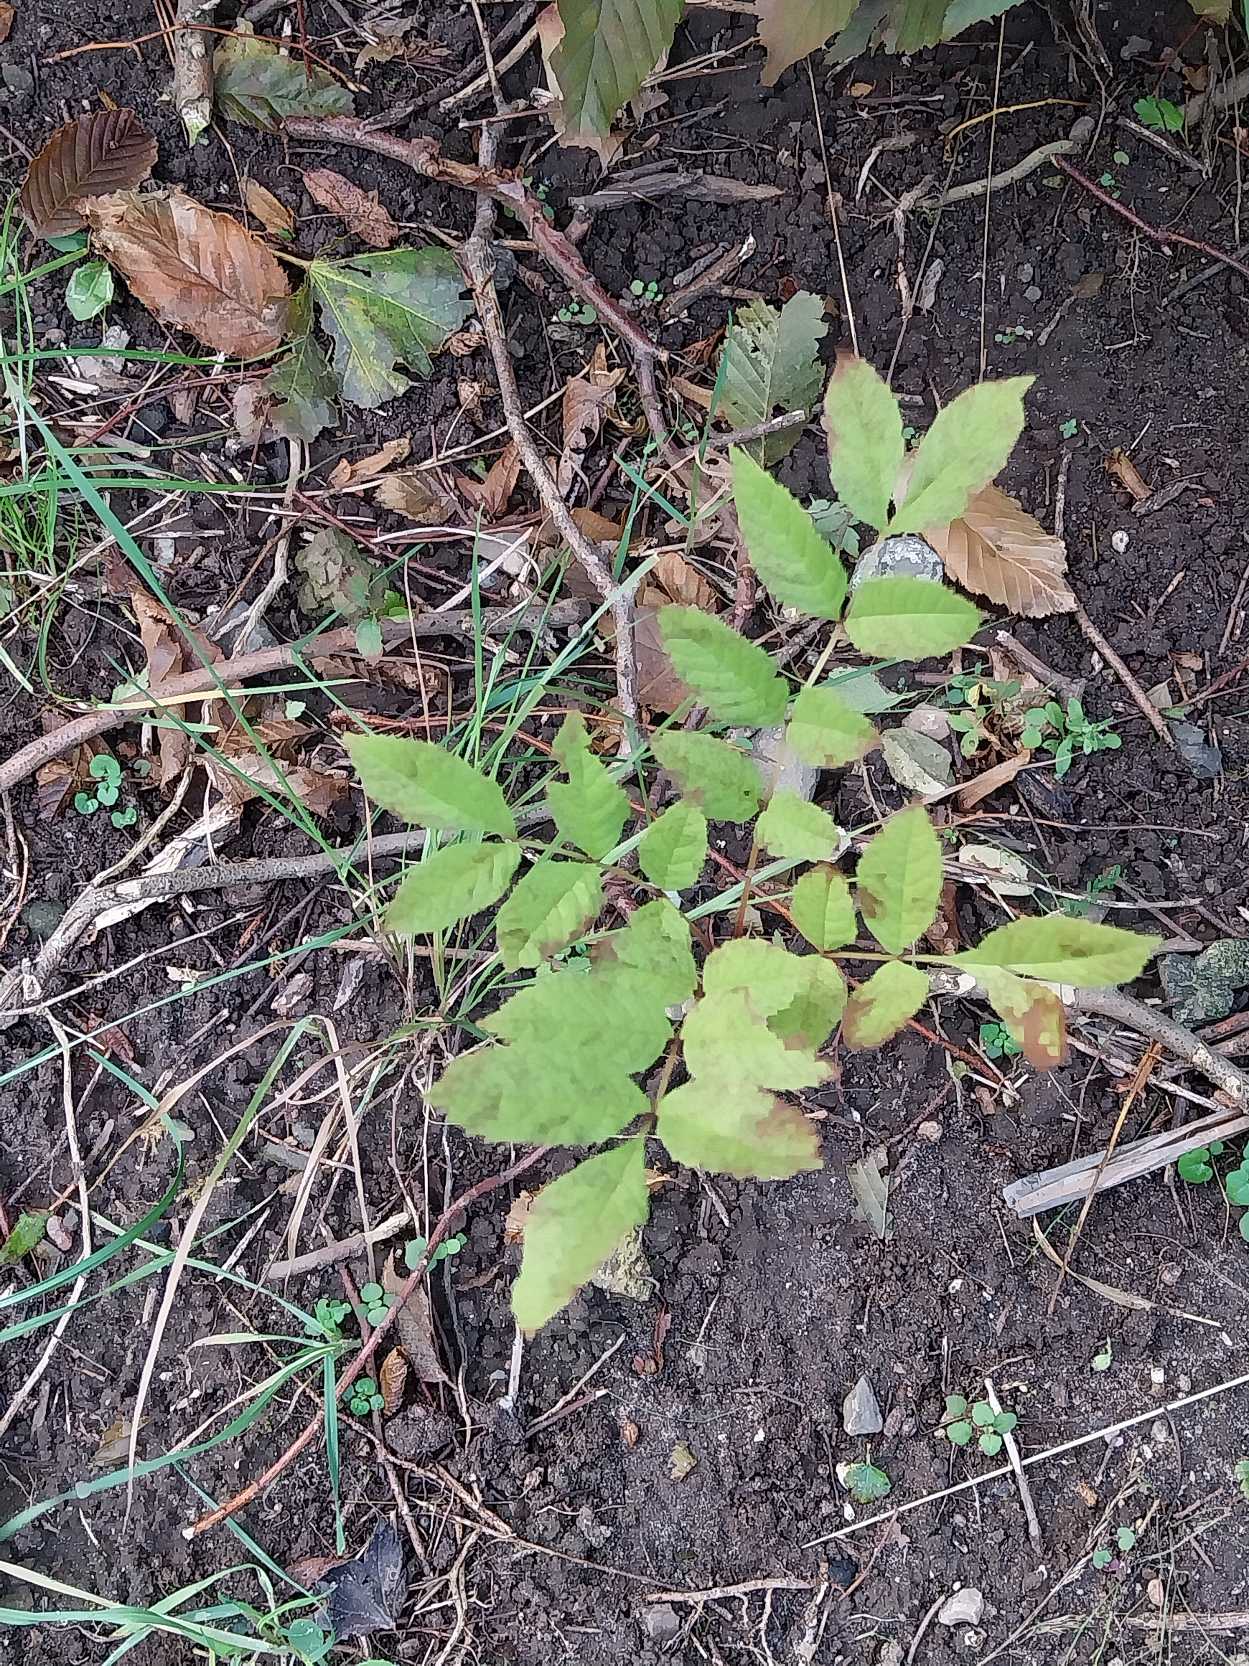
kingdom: Plantae
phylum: Tracheophyta
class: Magnoliopsida
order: Lamiales
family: Oleaceae
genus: Fraxinus
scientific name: Fraxinus excelsior
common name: Ask
